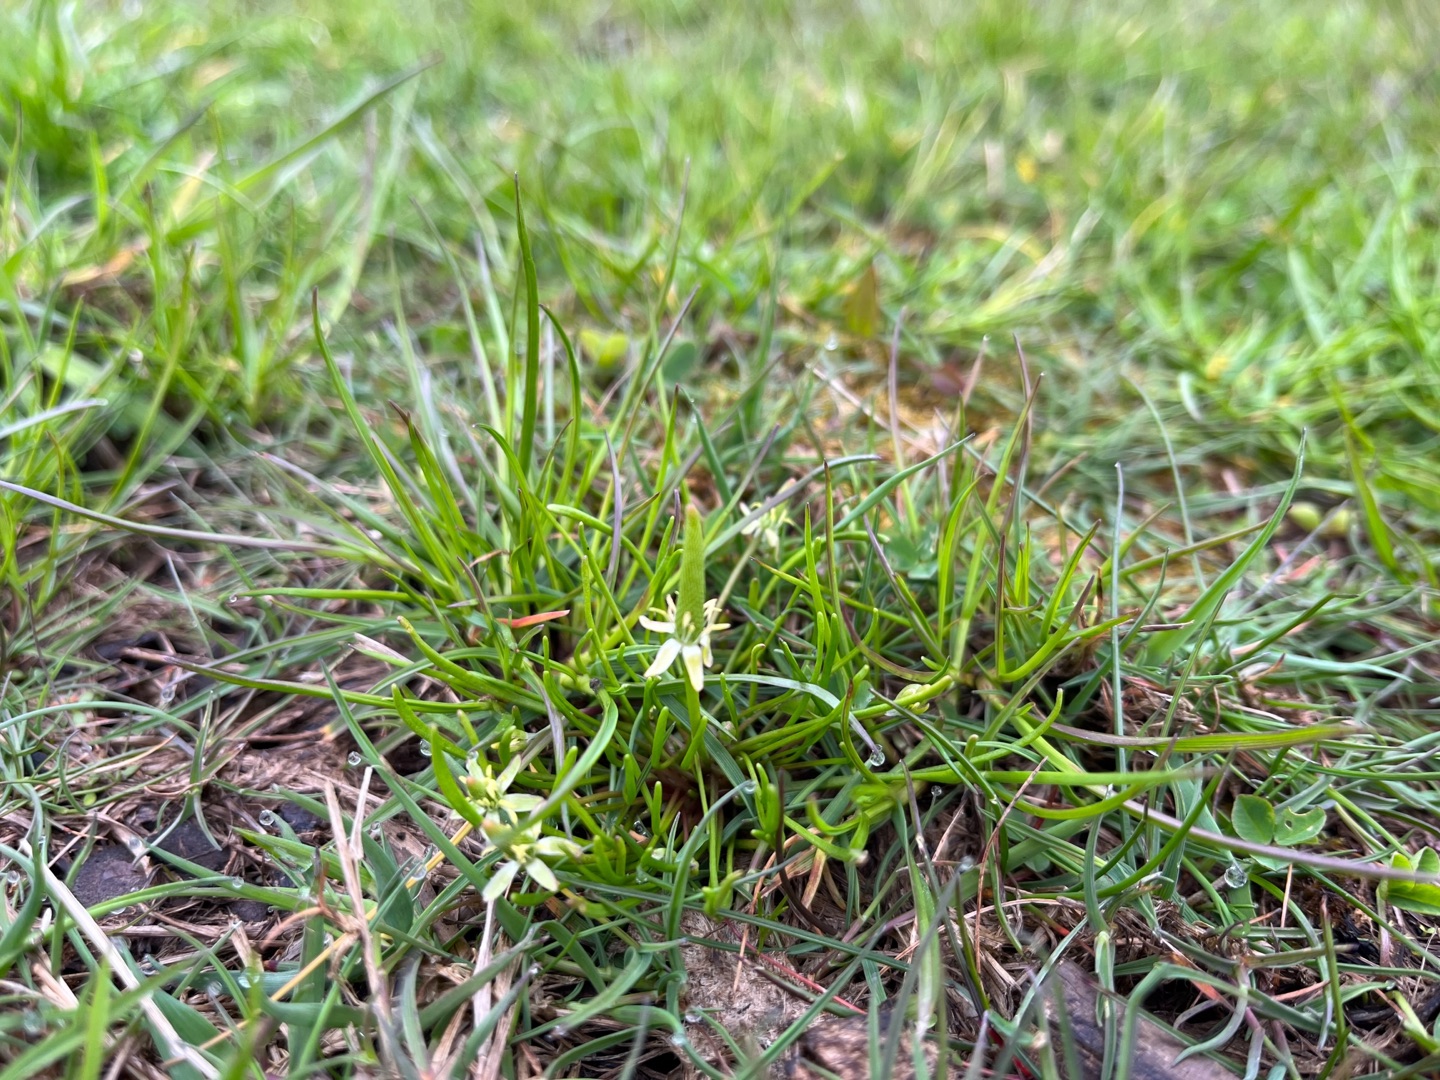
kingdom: Plantae
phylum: Tracheophyta
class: Magnoliopsida
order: Ranunculales
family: Ranunculaceae
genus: Myosurus
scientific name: Myosurus minimus
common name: Musehale
